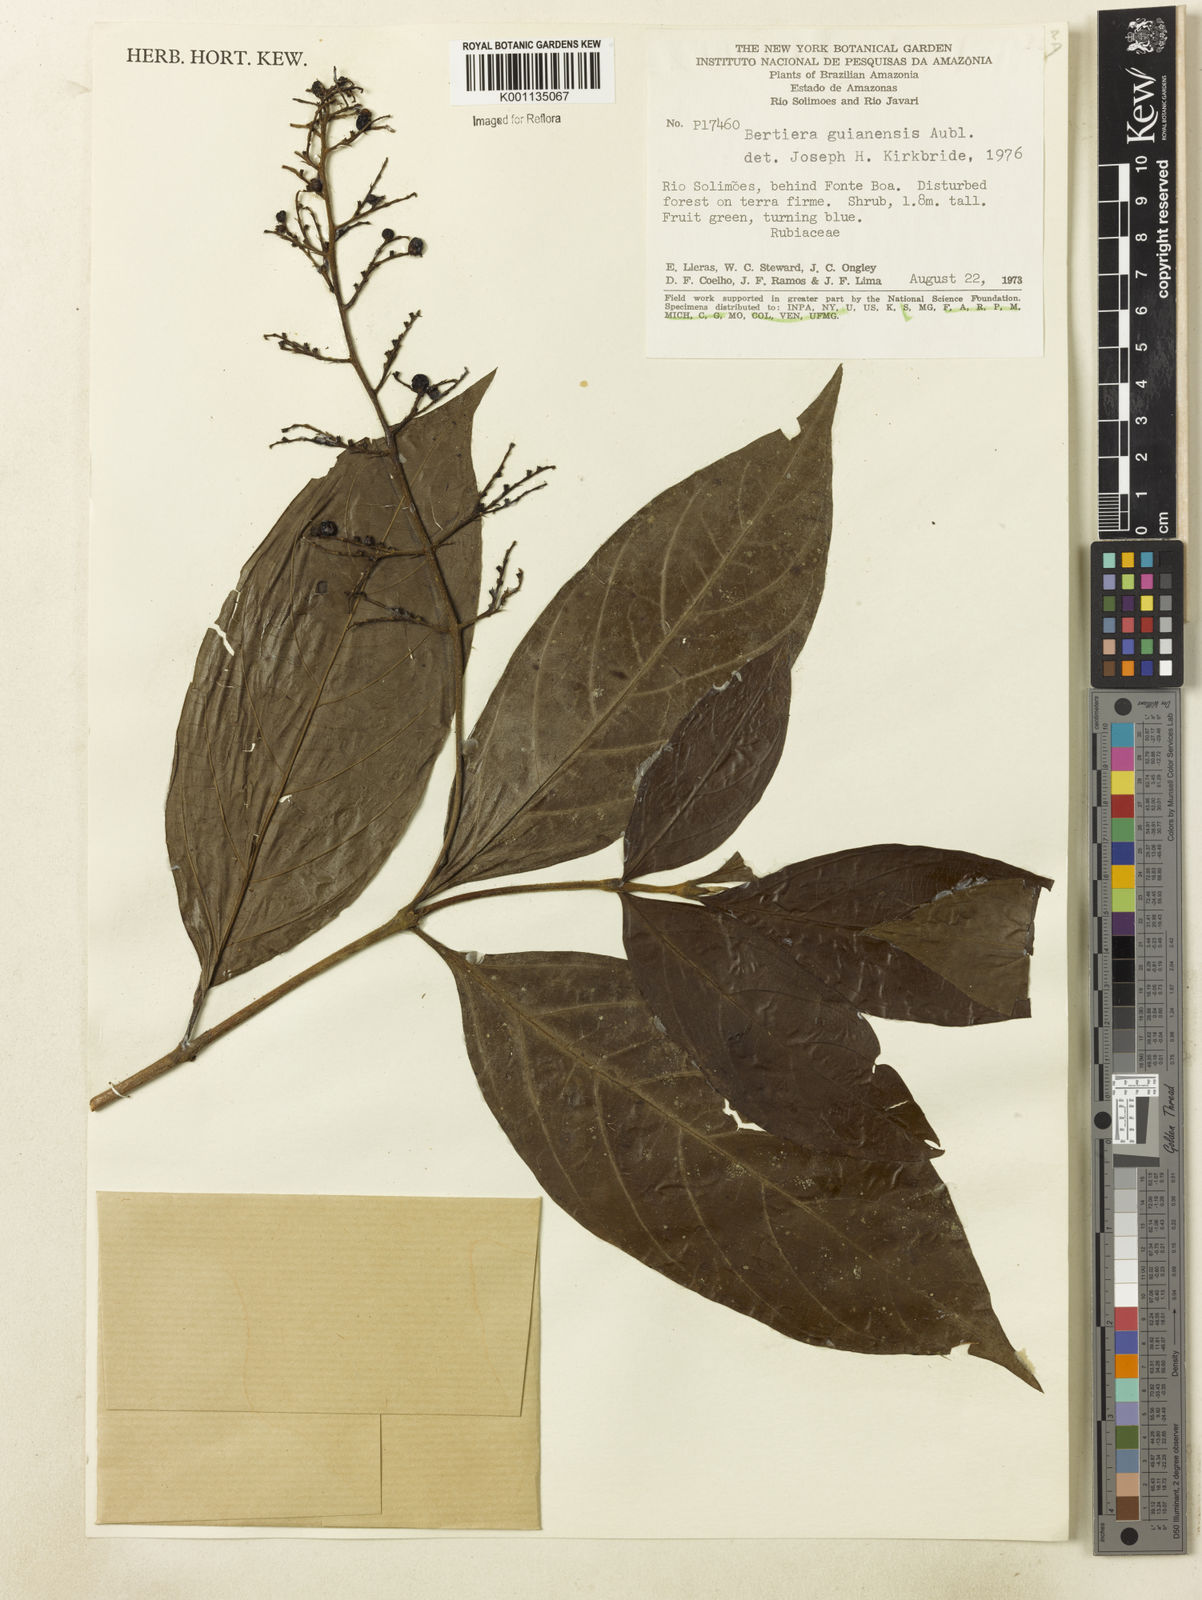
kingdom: Plantae
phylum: Tracheophyta
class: Magnoliopsida
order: Gentianales
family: Rubiaceae
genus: Bertiera
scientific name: Bertiera guianensis
